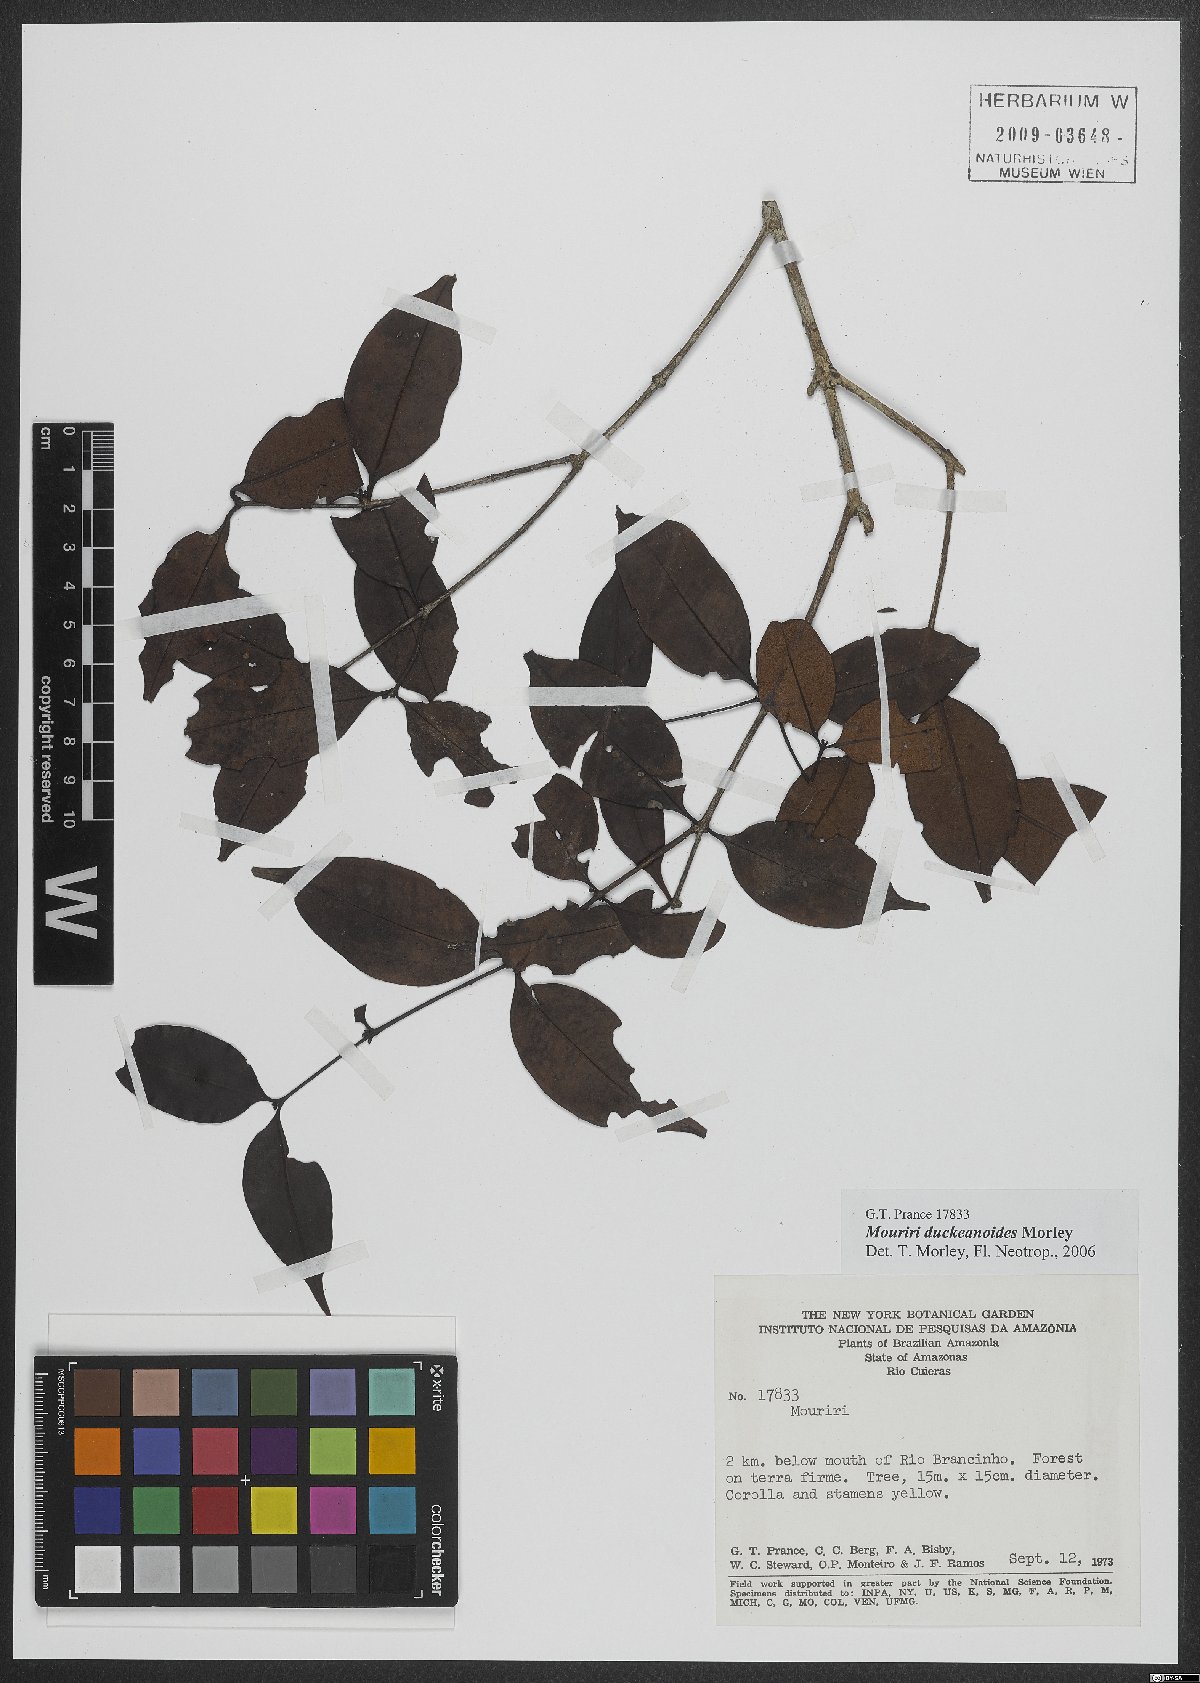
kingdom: Plantae
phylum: Tracheophyta
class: Magnoliopsida
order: Myrtales
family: Melastomataceae
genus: Mouriri
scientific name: Mouriri duckeanoides
